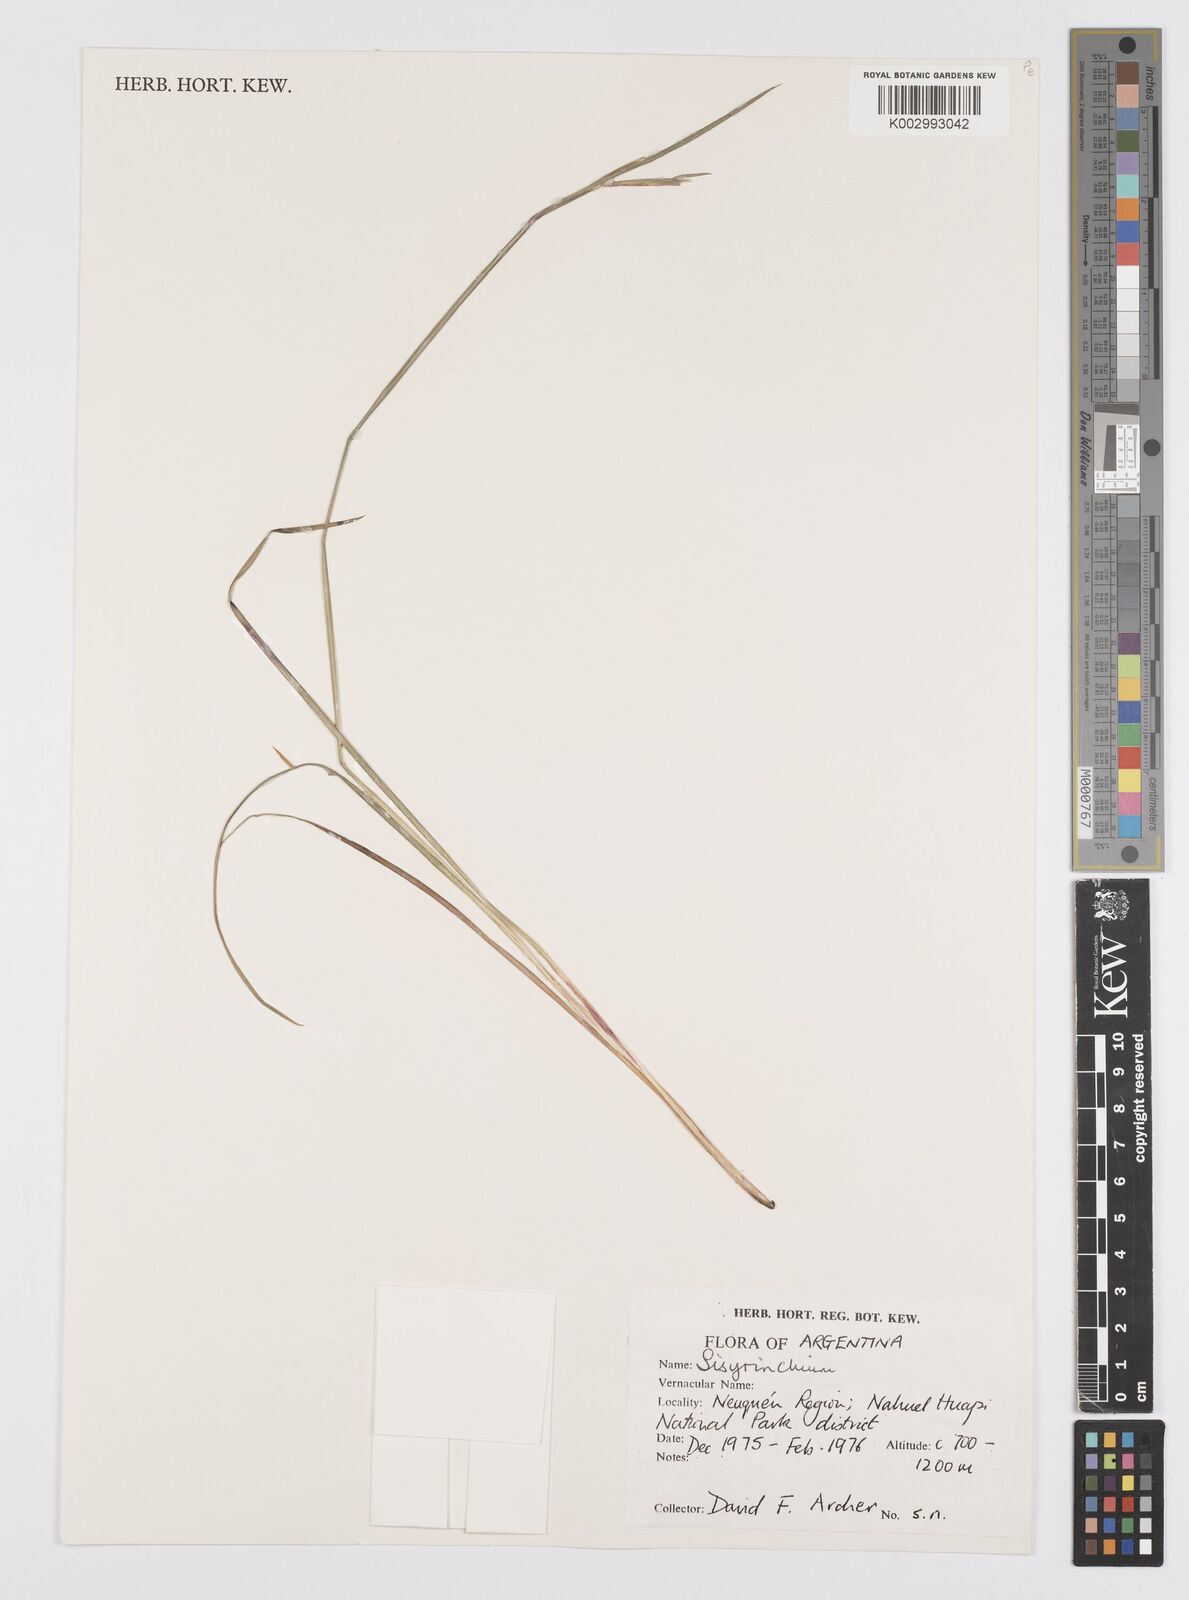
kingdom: Plantae
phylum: Tracheophyta
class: Liliopsida
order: Asparagales
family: Iridaceae
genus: Sisyrinchium
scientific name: Sisyrinchium
